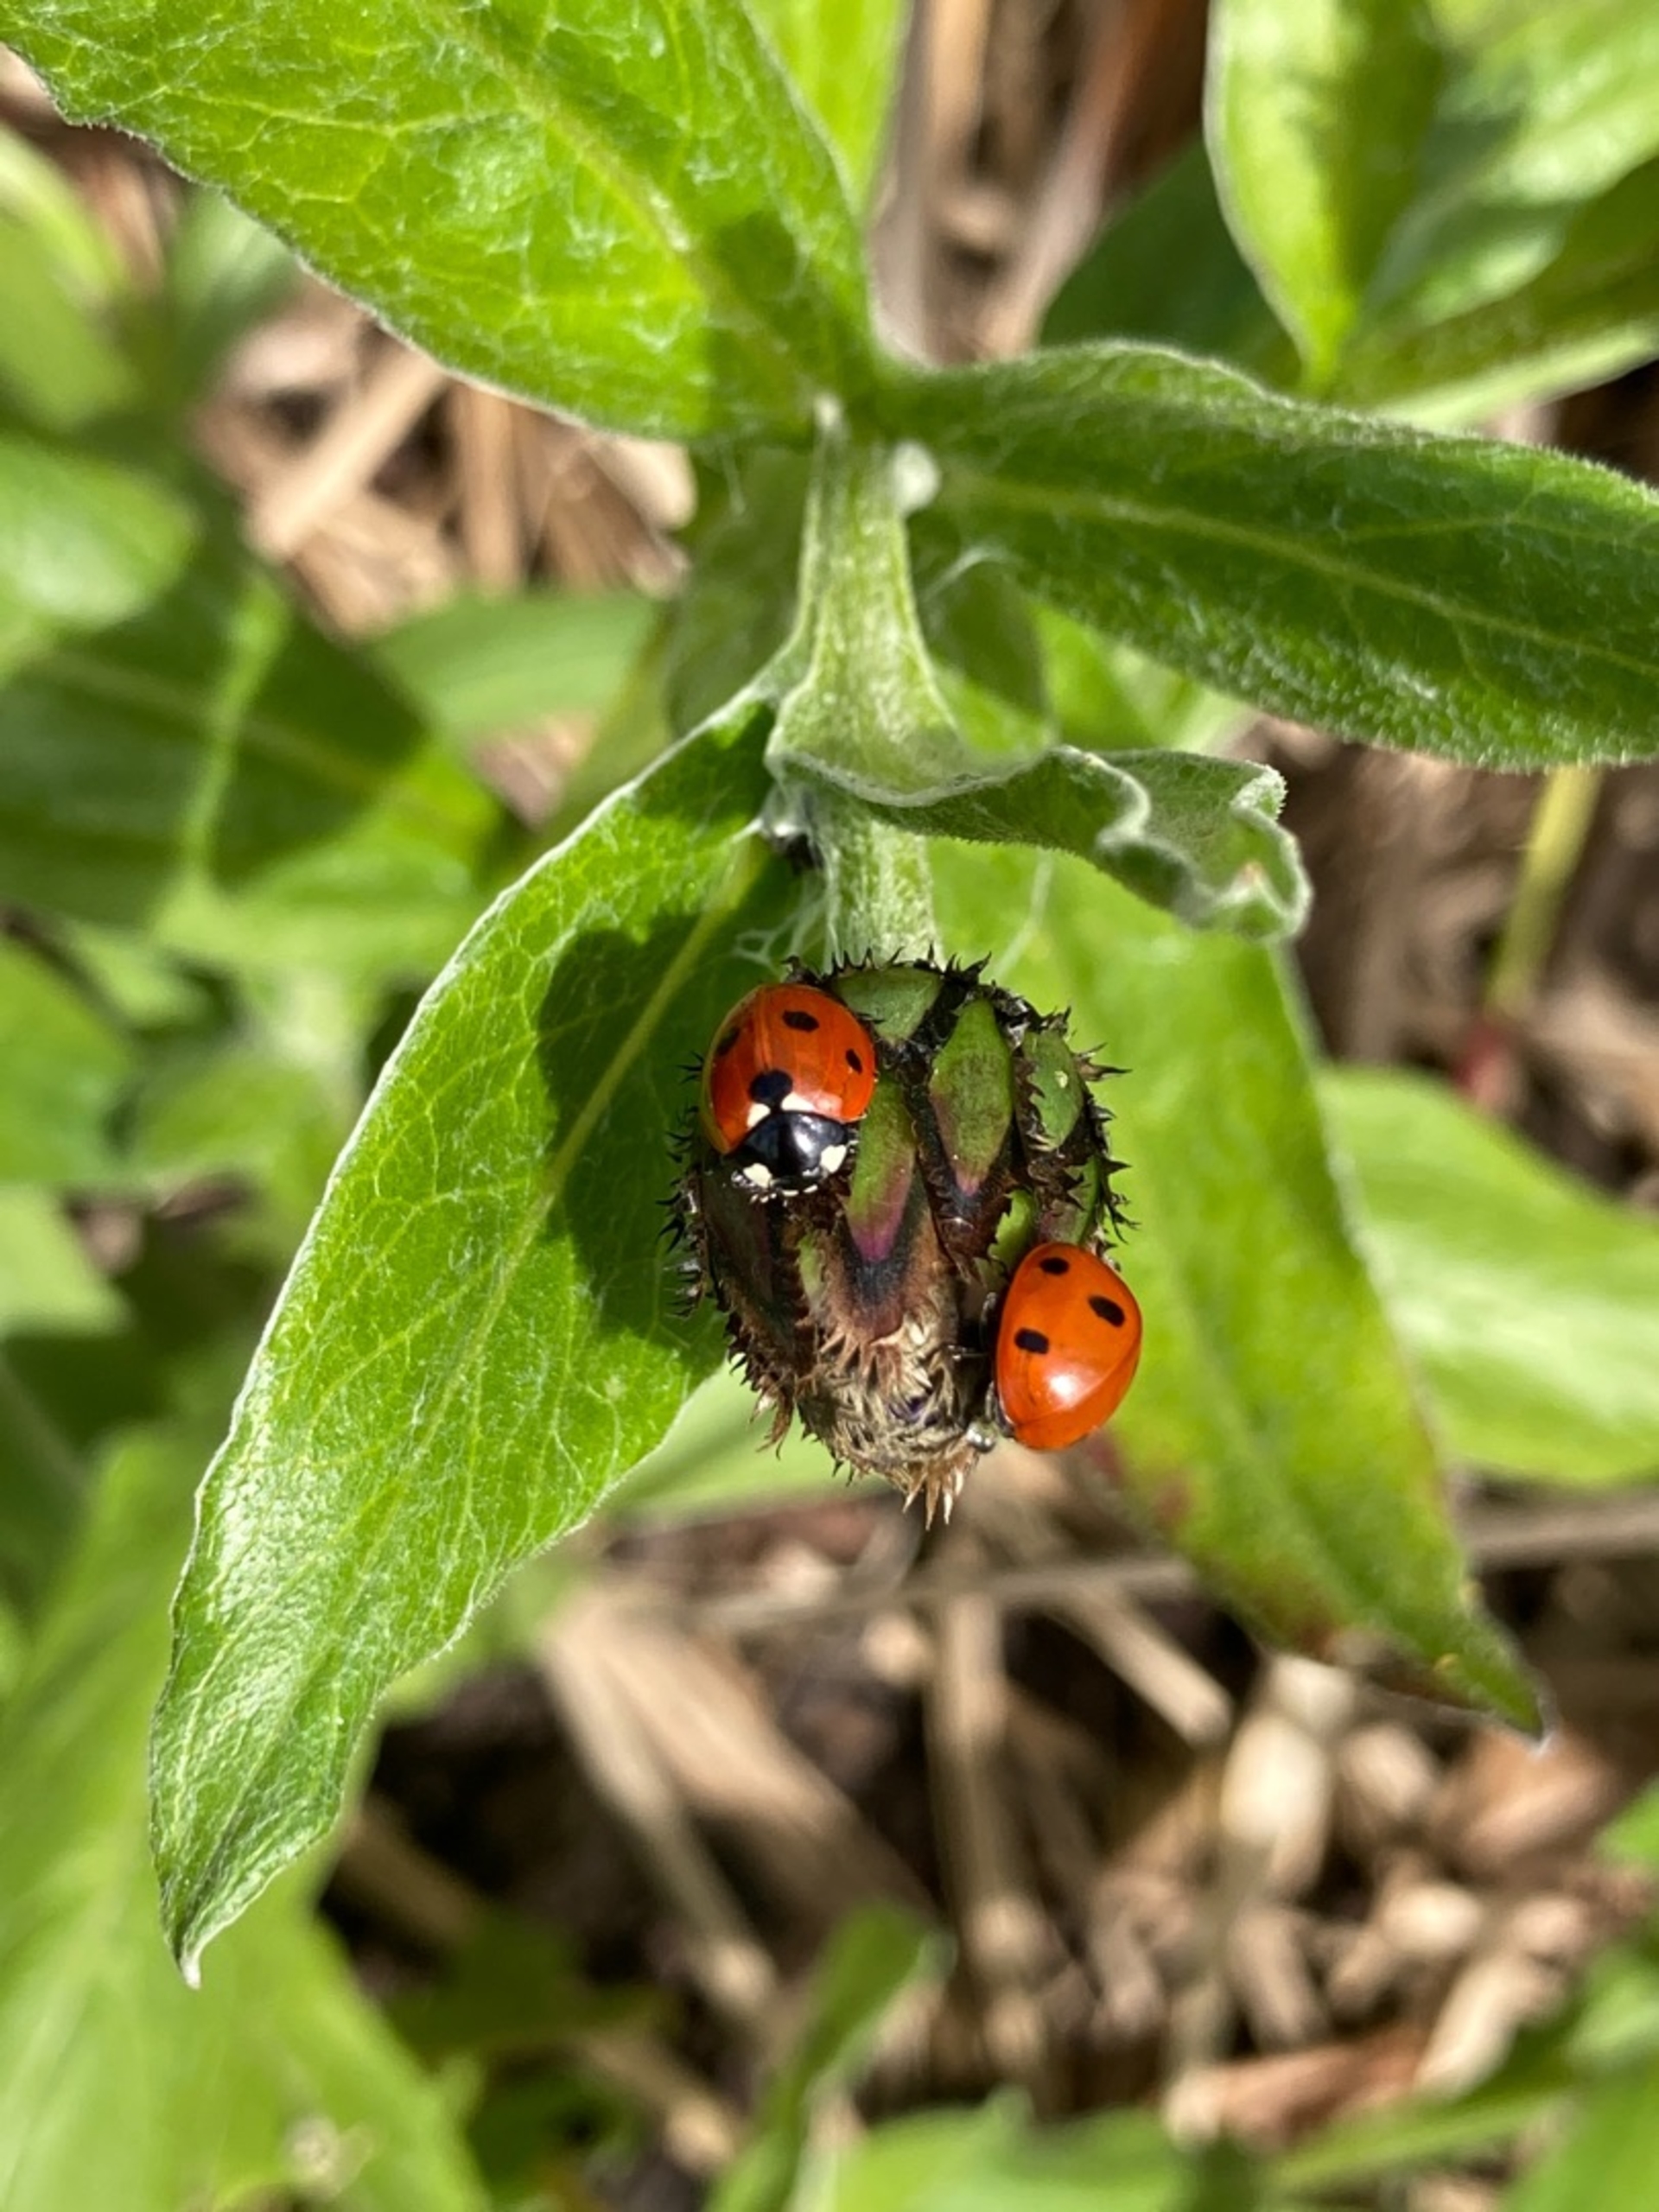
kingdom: Animalia
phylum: Arthropoda
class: Insecta
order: Coleoptera
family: Coccinellidae
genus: Coccinella
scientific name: Coccinella septempunctata
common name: Syvplettet mariehøne
